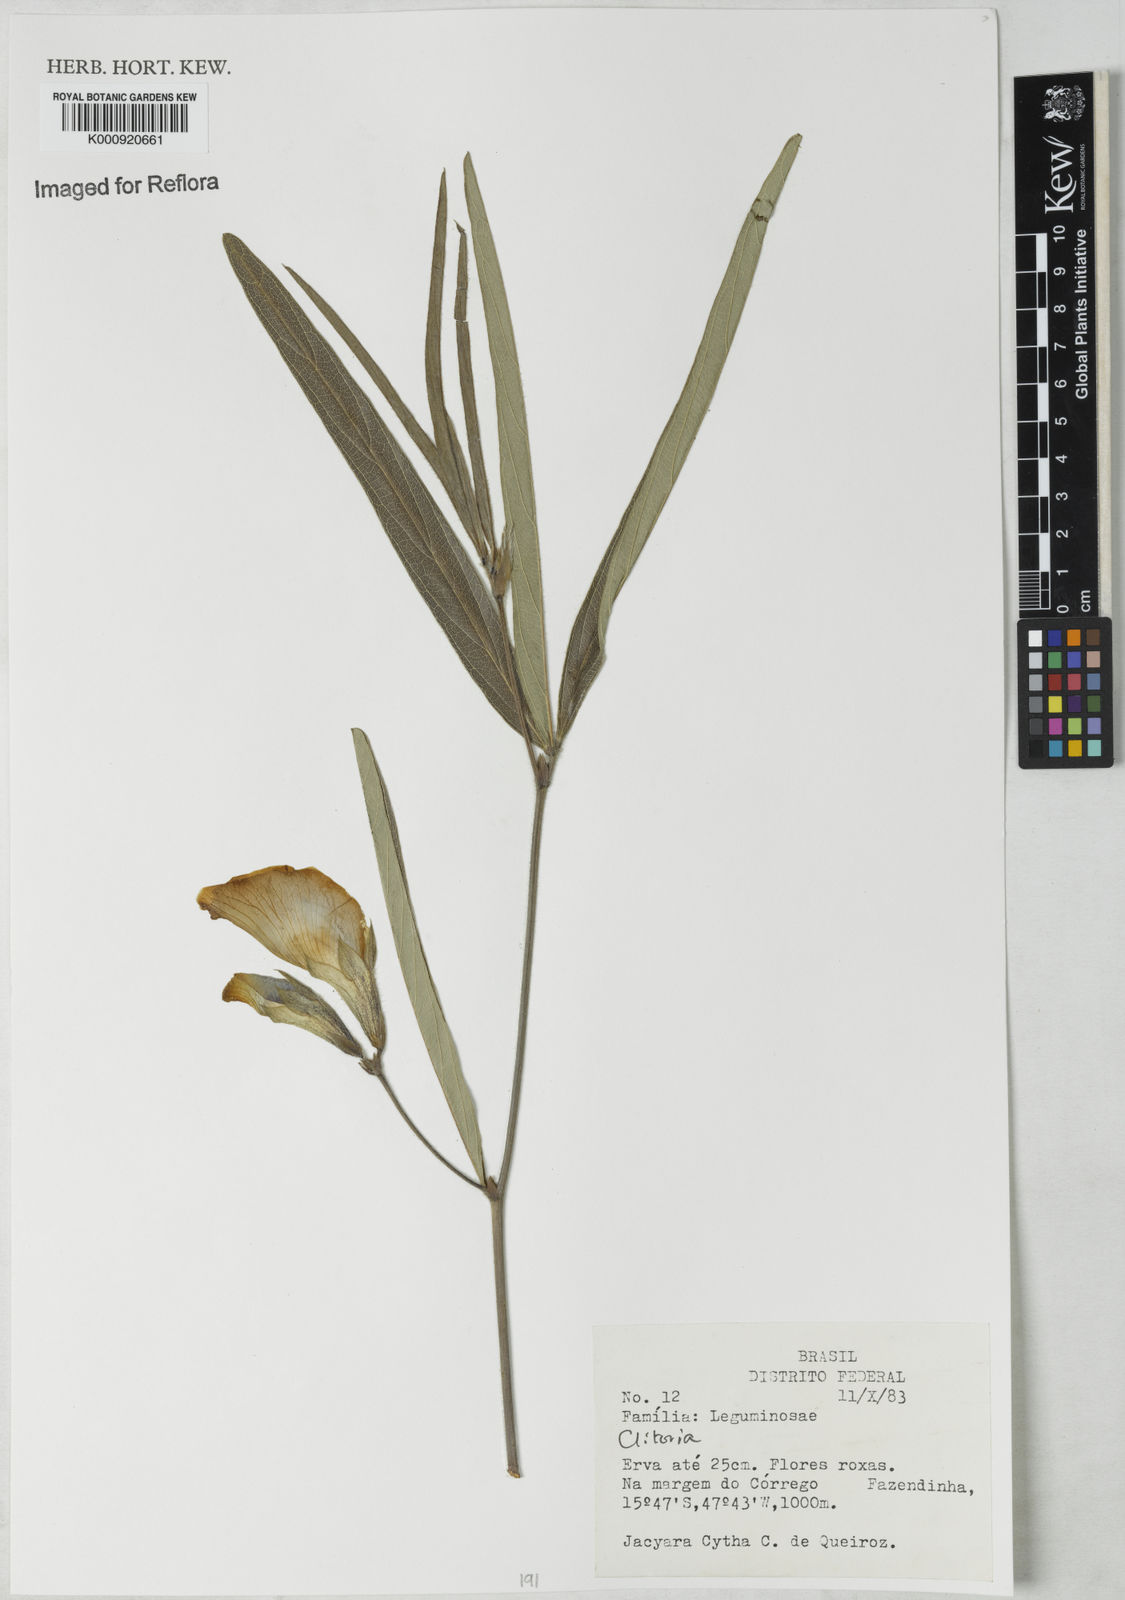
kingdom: Plantae
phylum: Tracheophyta
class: Magnoliopsida
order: Fabales
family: Fabaceae
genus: Clitoria
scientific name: Clitoria
